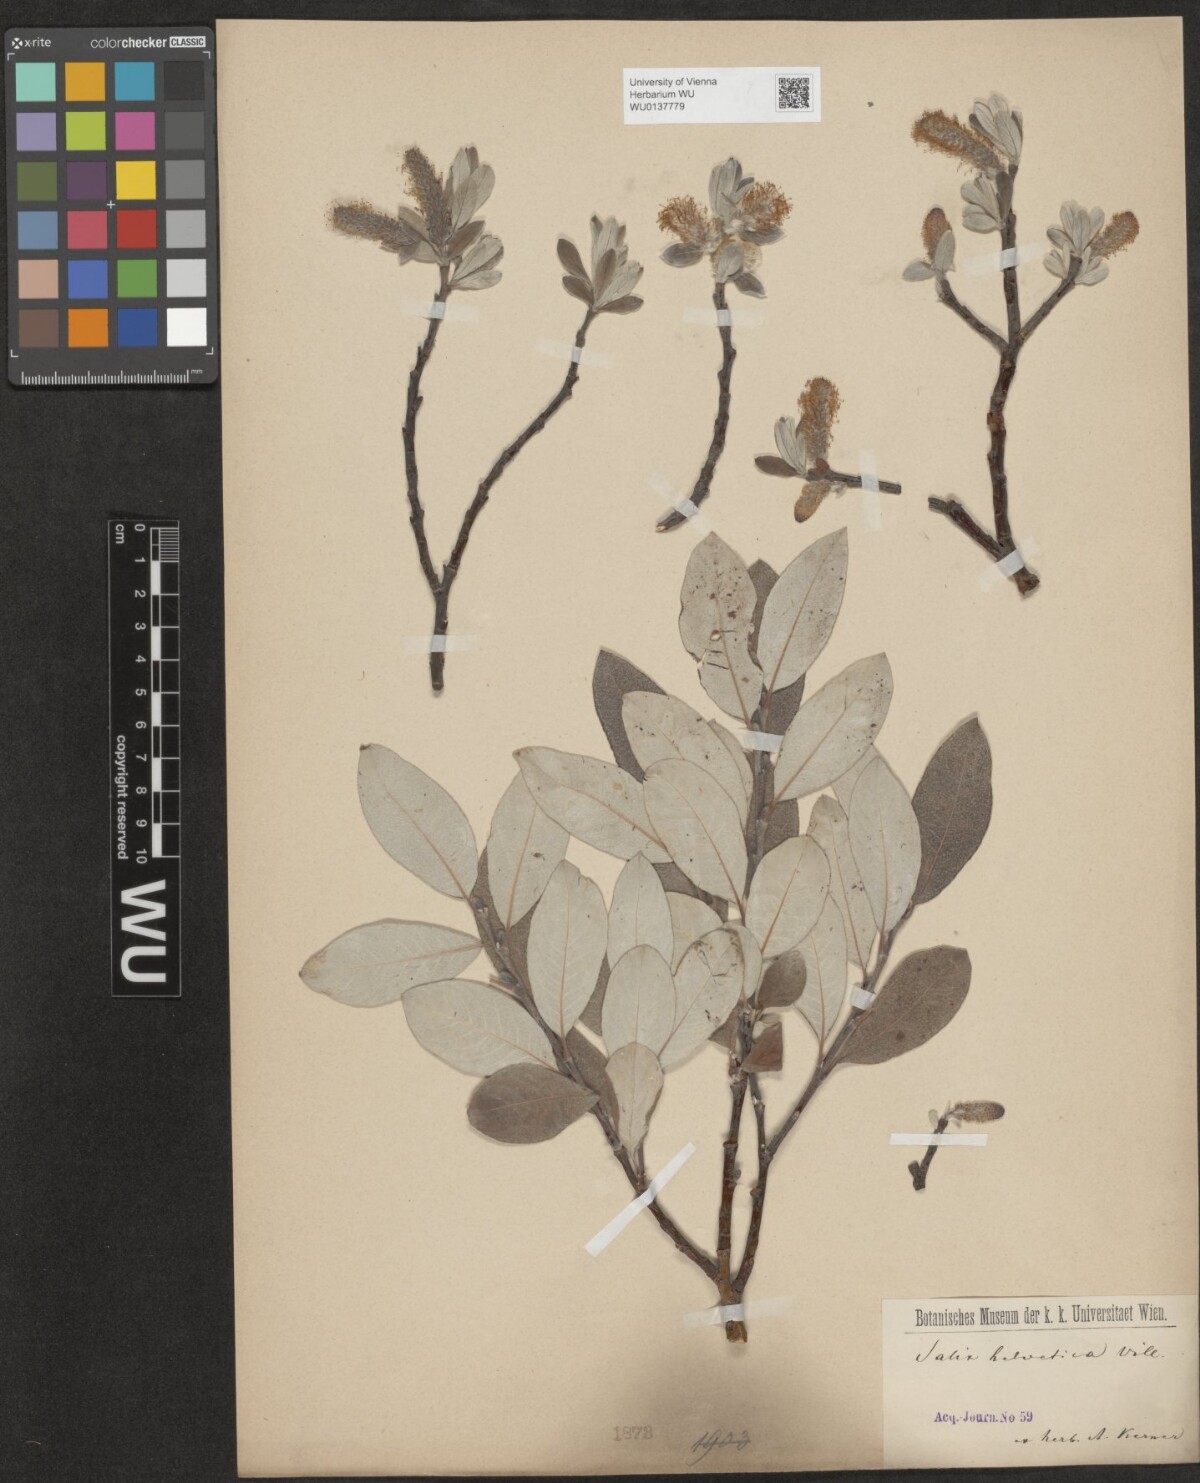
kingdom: Plantae
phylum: Tracheophyta
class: Magnoliopsida
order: Malpighiales
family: Salicaceae
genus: Salix
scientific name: Salix helvetica
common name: Swiss willow
